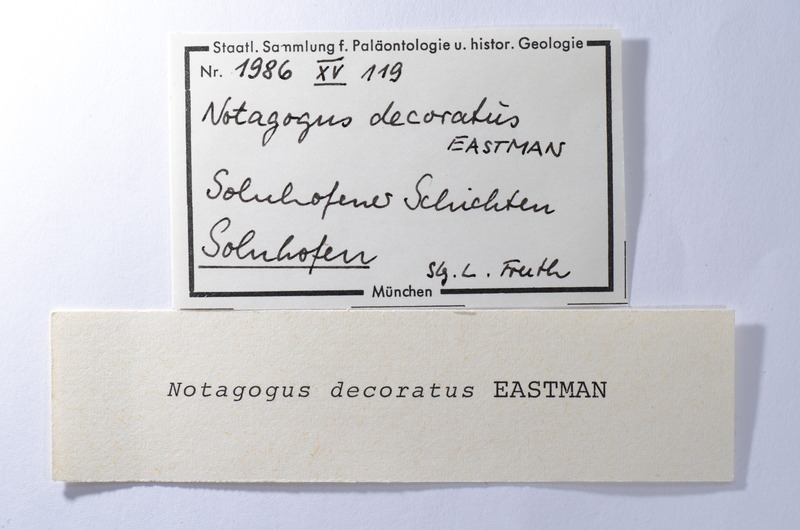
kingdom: Animalia
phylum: Chordata
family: Macrosemiidae
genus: Notagogus
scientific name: Notagogus decoratus
